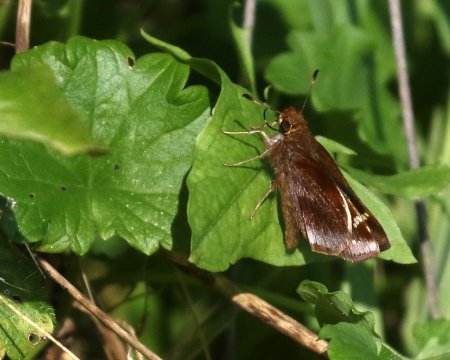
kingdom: Animalia
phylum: Arthropoda
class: Insecta
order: Lepidoptera
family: Hesperiidae
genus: Lon
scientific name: Lon zabulon
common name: Zabulon Skipper
